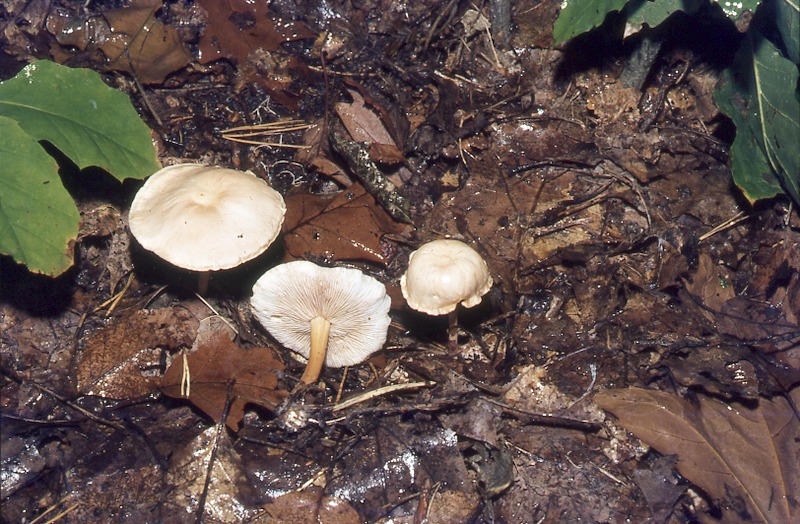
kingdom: Fungi
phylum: Basidiomycota
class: Agaricomycetes
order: Agaricales
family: Omphalotaceae
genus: Gymnopus
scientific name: Gymnopus dryophilus
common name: Penny top
